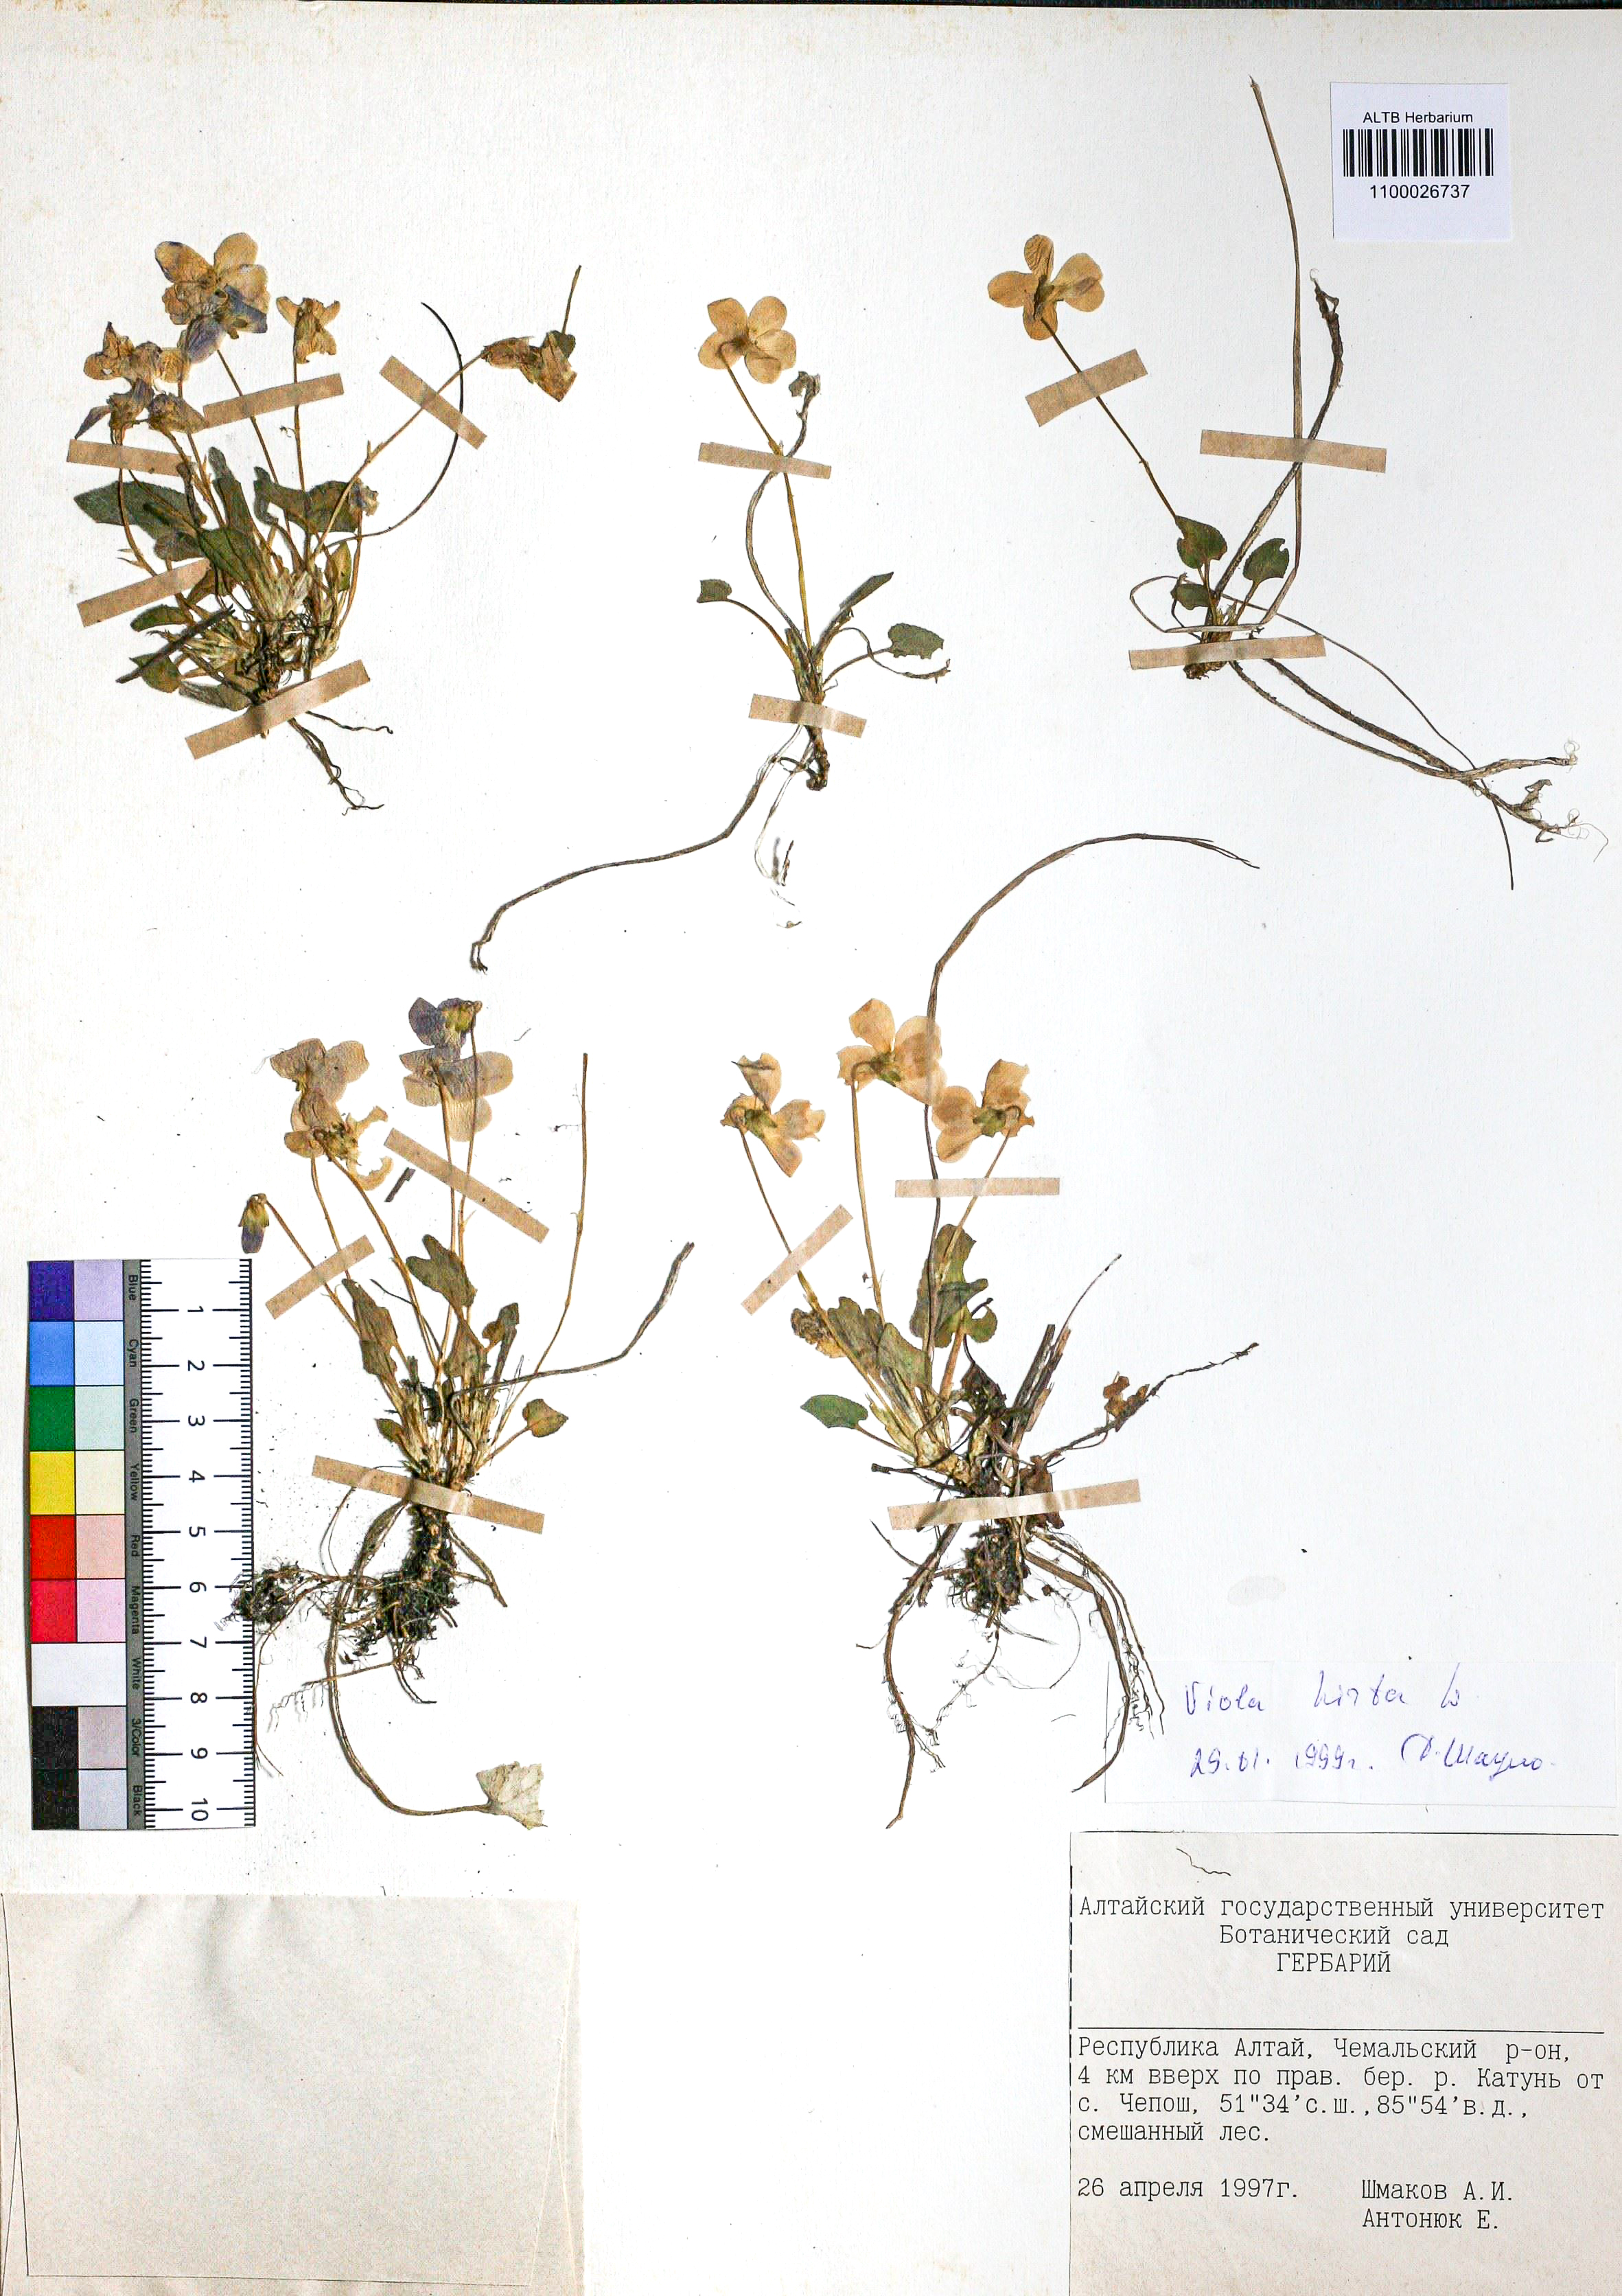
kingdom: Plantae
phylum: Tracheophyta
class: Magnoliopsida
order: Malpighiales
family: Violaceae
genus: Viola
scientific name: Viola hirta
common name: Hairy violet
